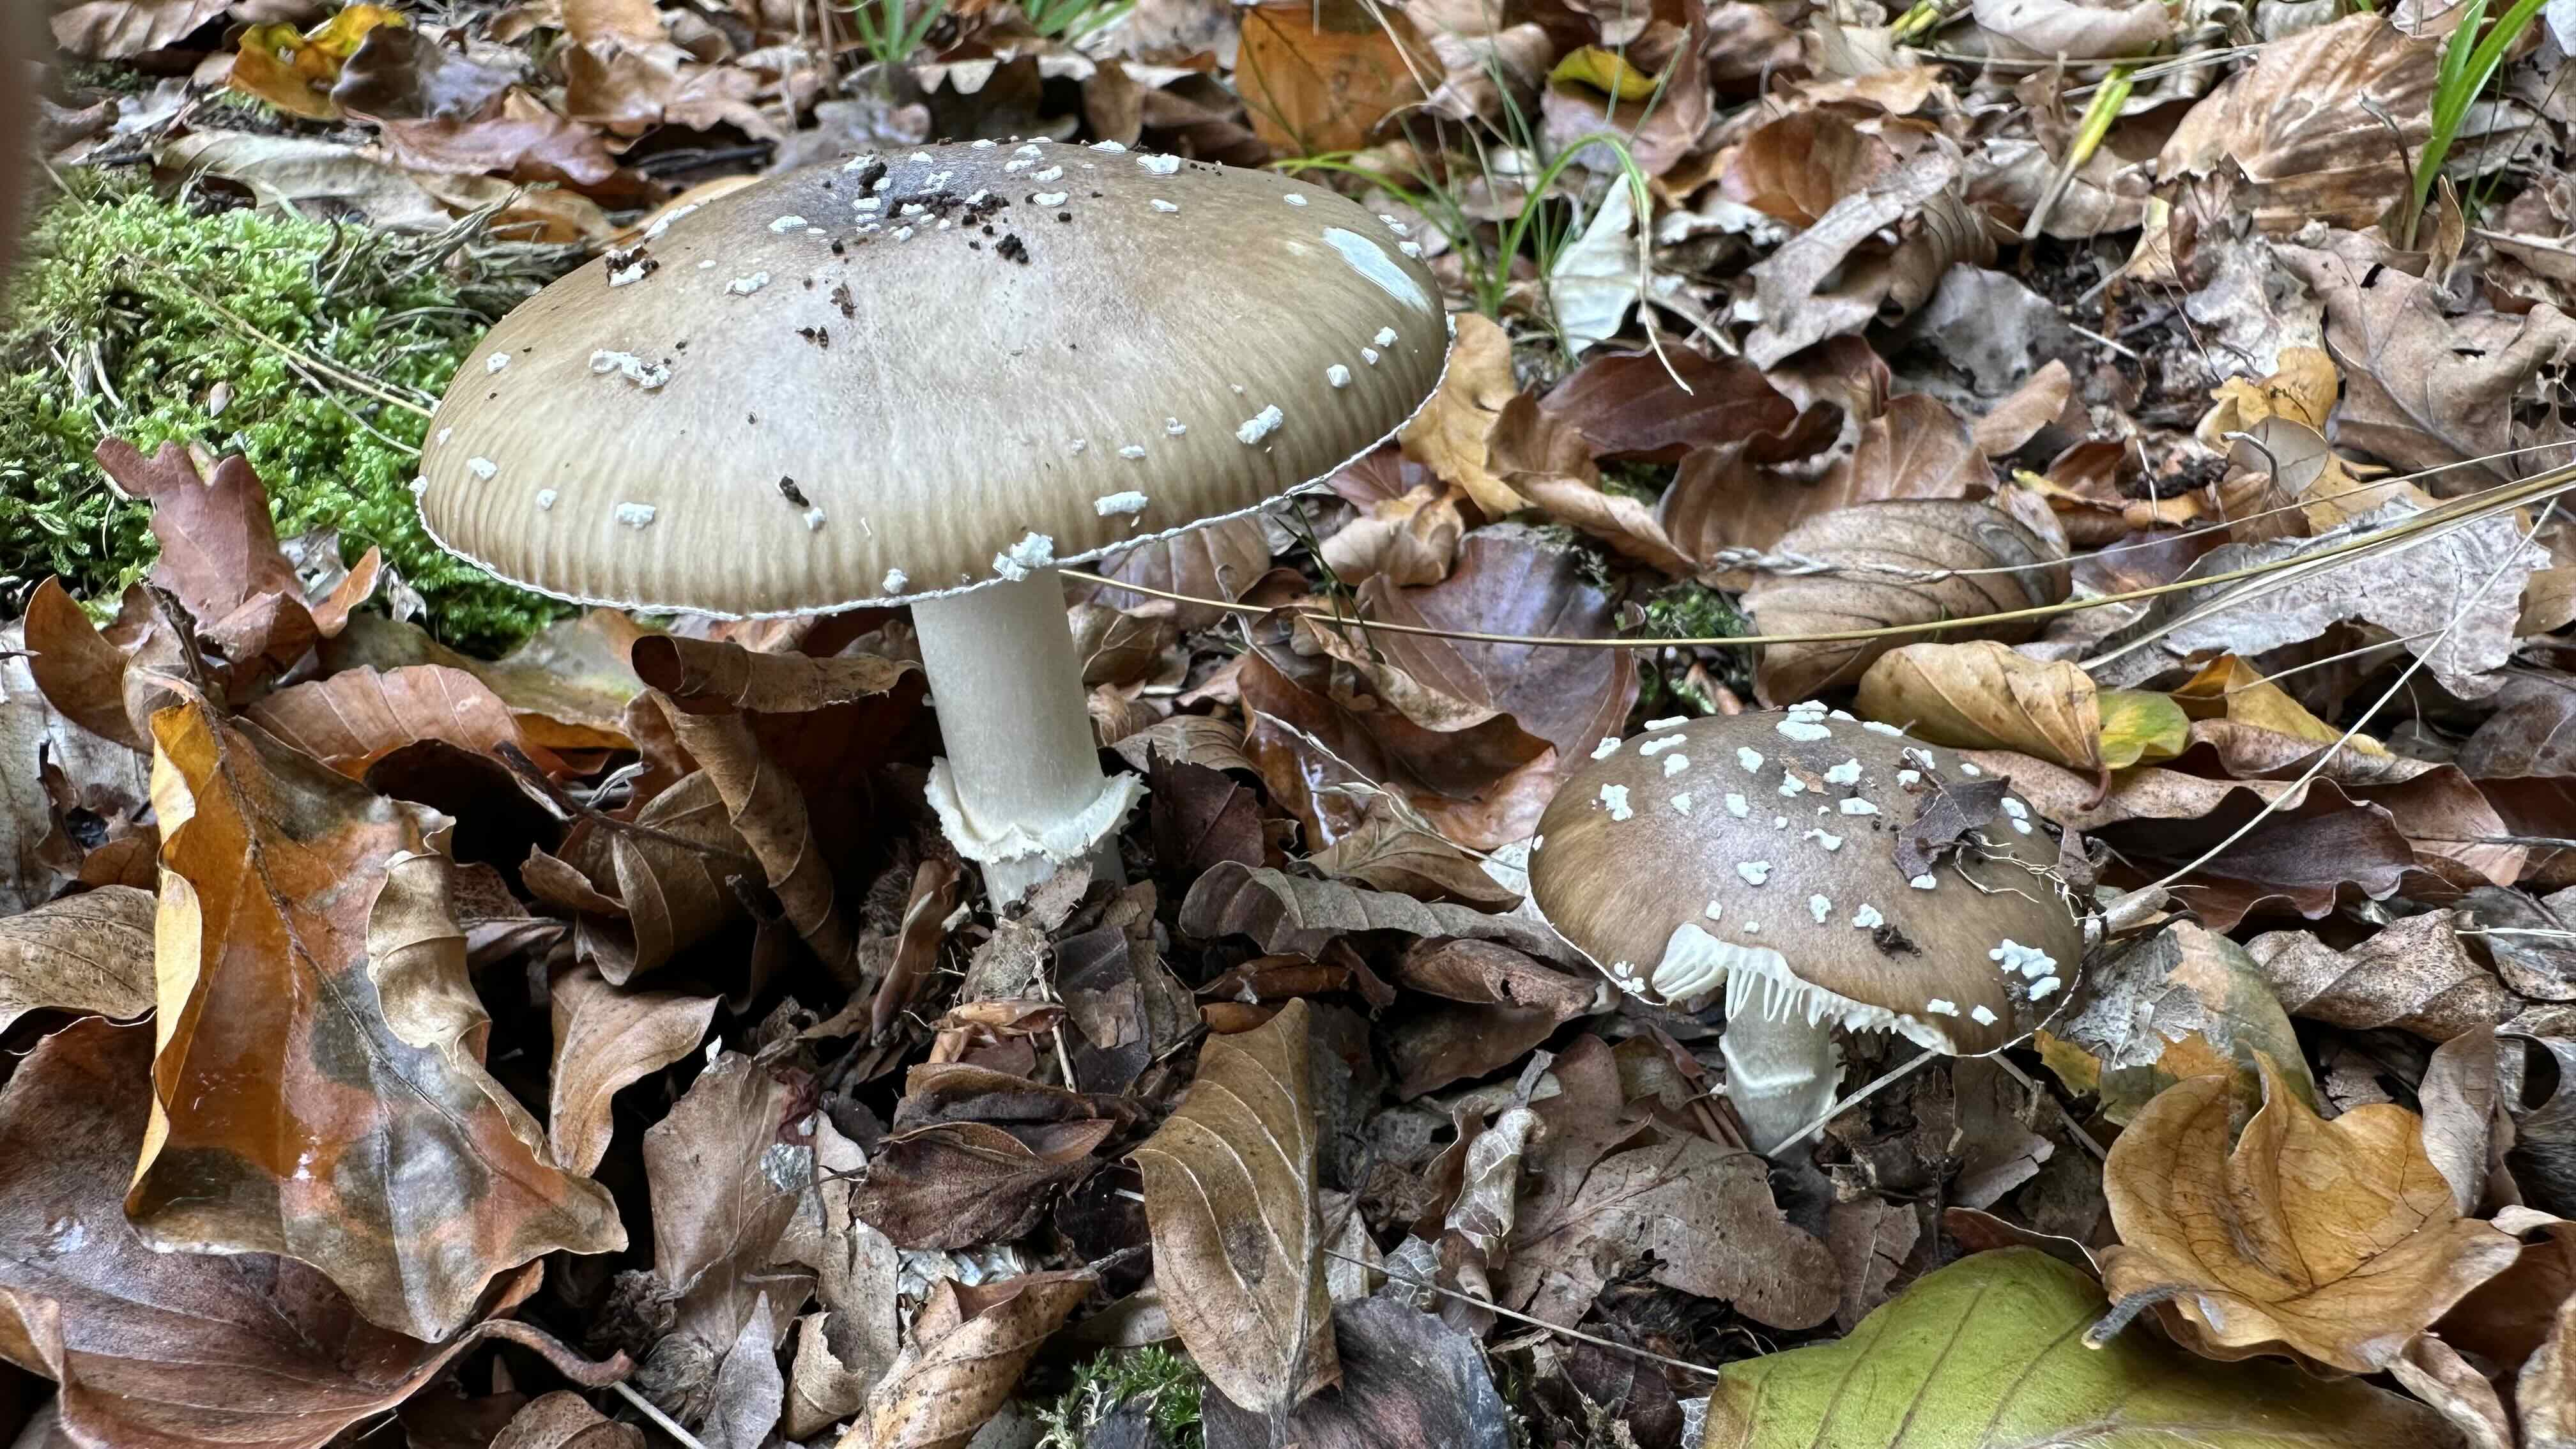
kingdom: Fungi
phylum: Basidiomycota
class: Agaricomycetes
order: Agaricales
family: Amanitaceae
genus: Amanita
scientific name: Amanita pantherina
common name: panter-fluesvamp
